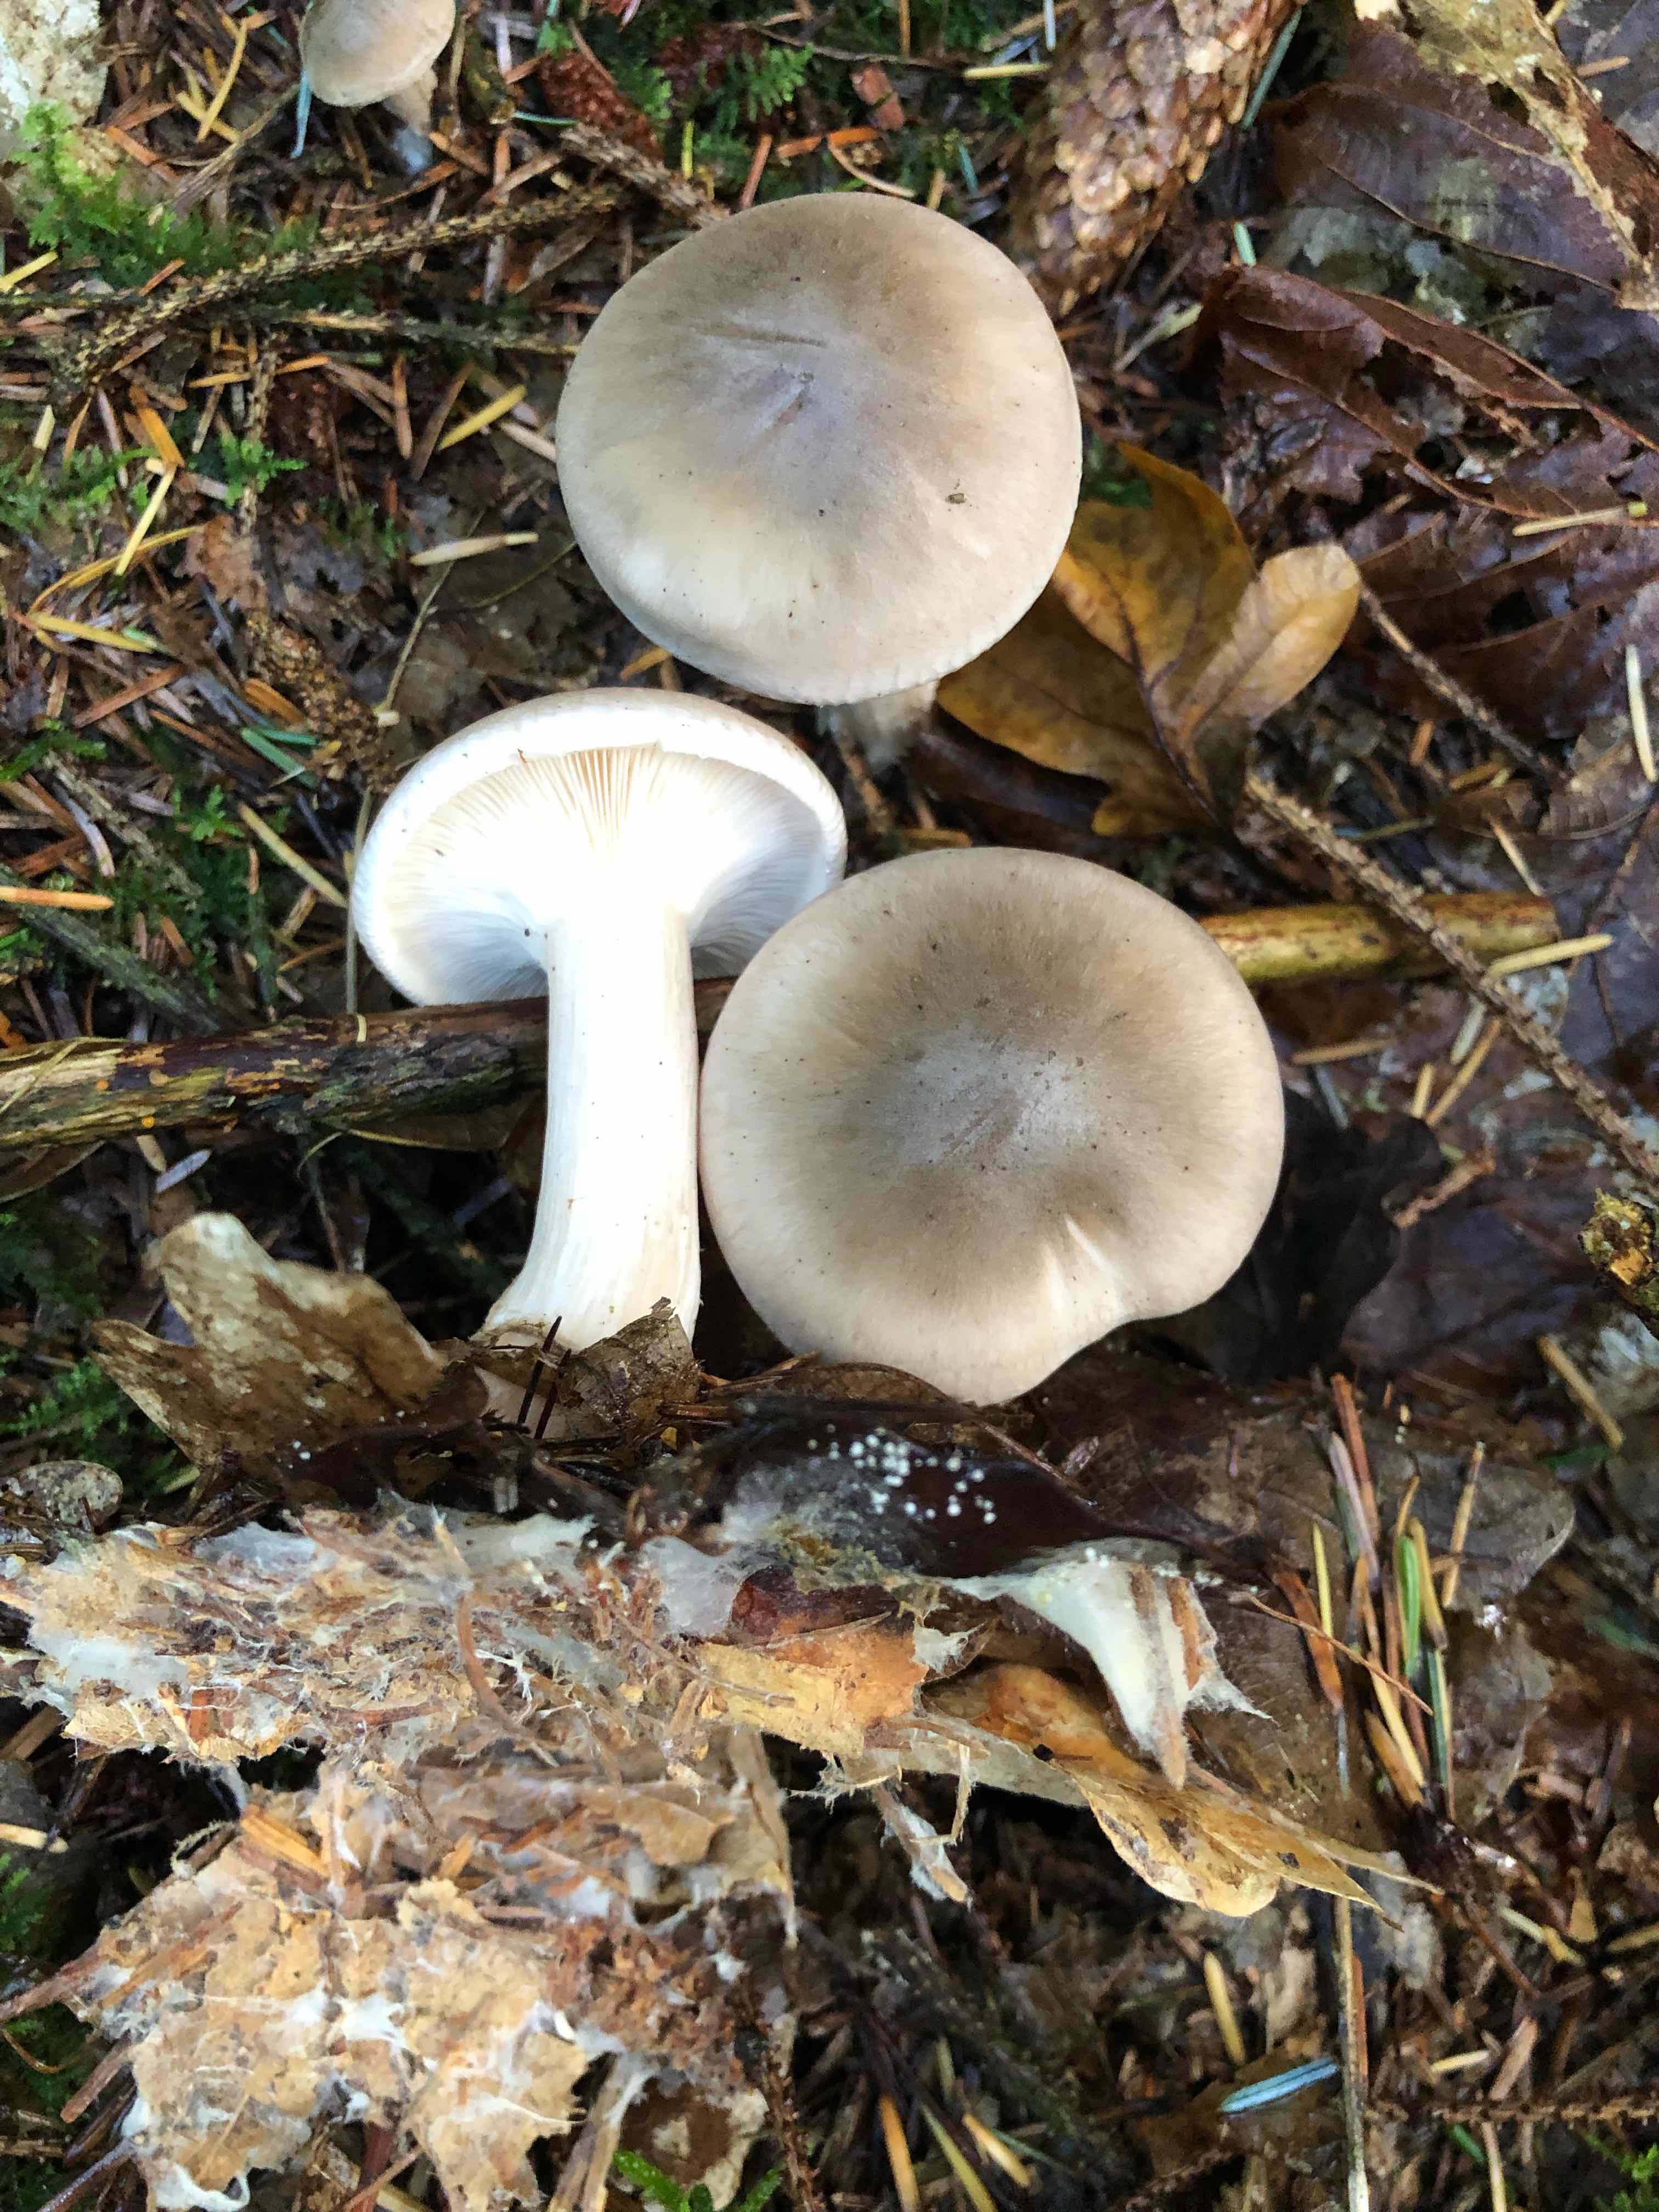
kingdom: Fungi
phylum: Basidiomycota
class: Agaricomycetes
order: Agaricales
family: Tricholomataceae
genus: Clitocybe
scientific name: Clitocybe nebularis
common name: tåge-tragthat
